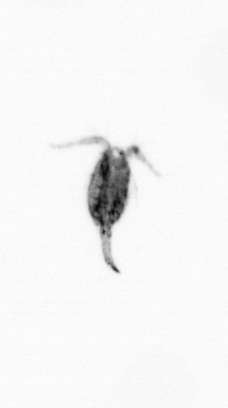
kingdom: Animalia
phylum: Arthropoda
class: Copepoda
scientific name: Copepoda
